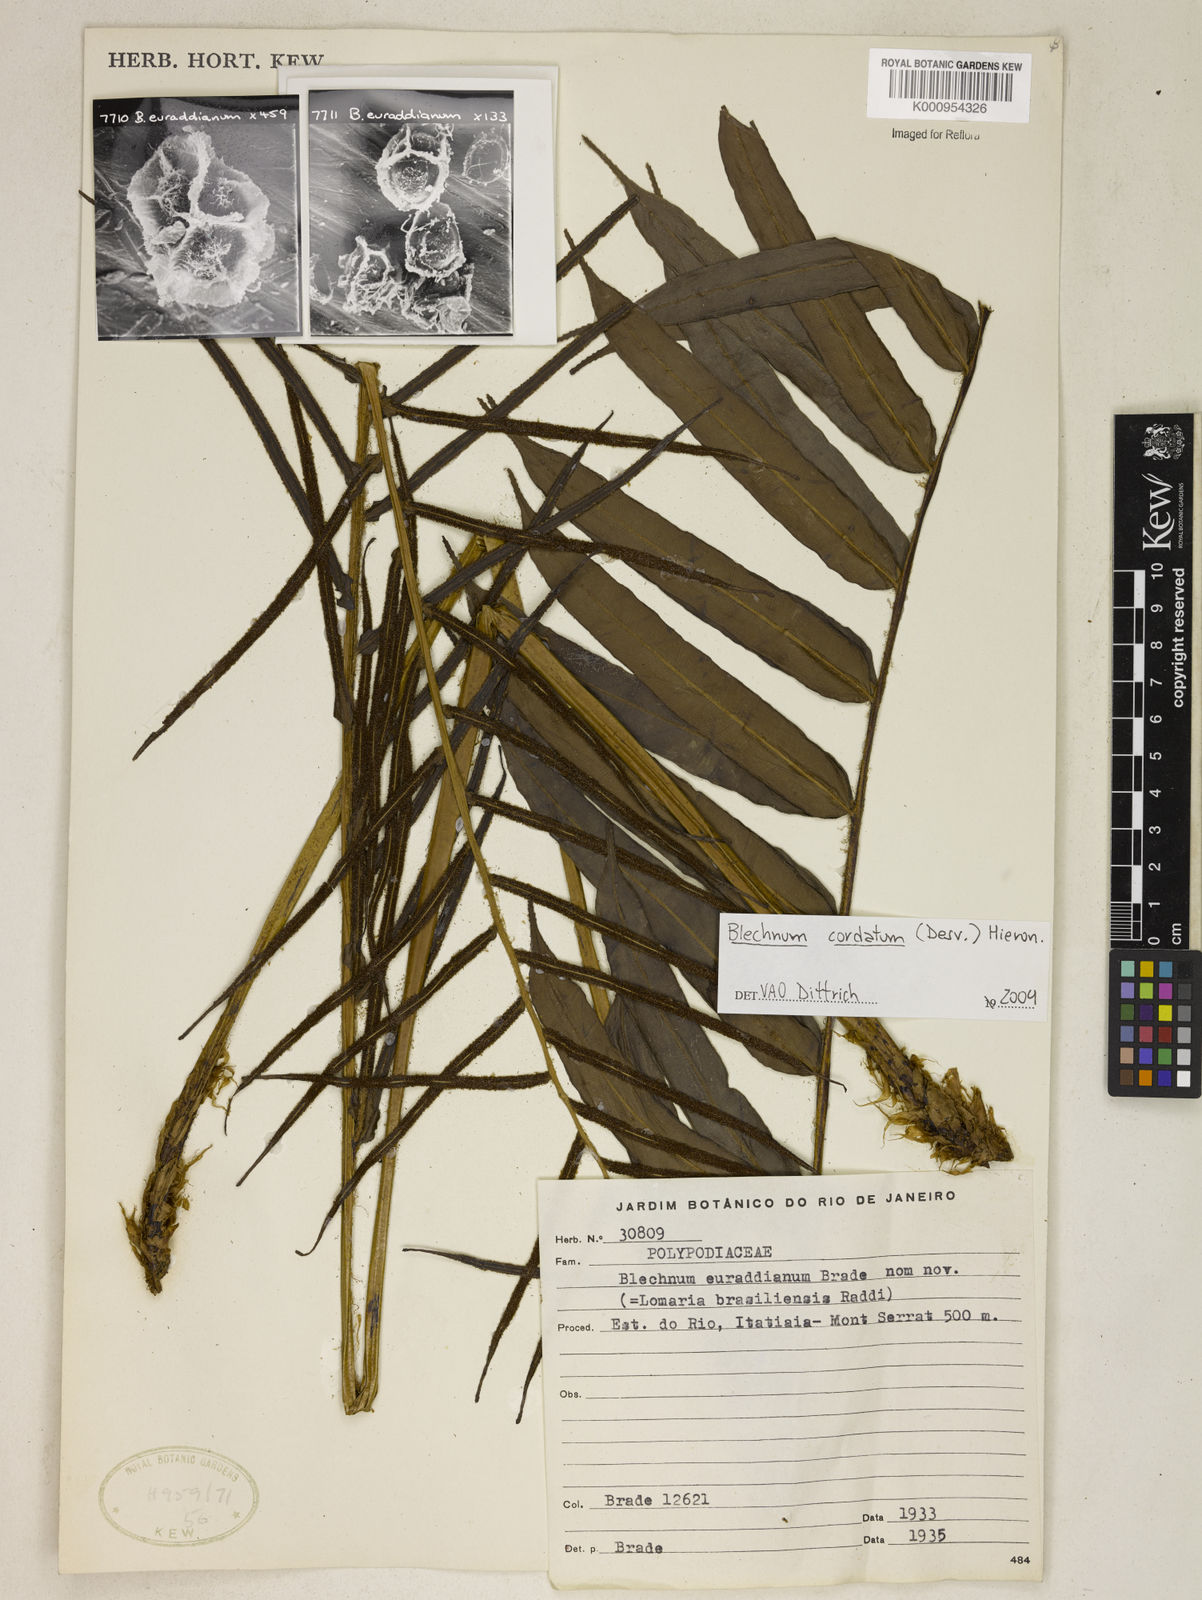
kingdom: Plantae
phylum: Tracheophyta
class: Polypodiopsida
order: Polypodiales
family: Blechnaceae
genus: Parablechnum
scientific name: Parablechnum cordatum
